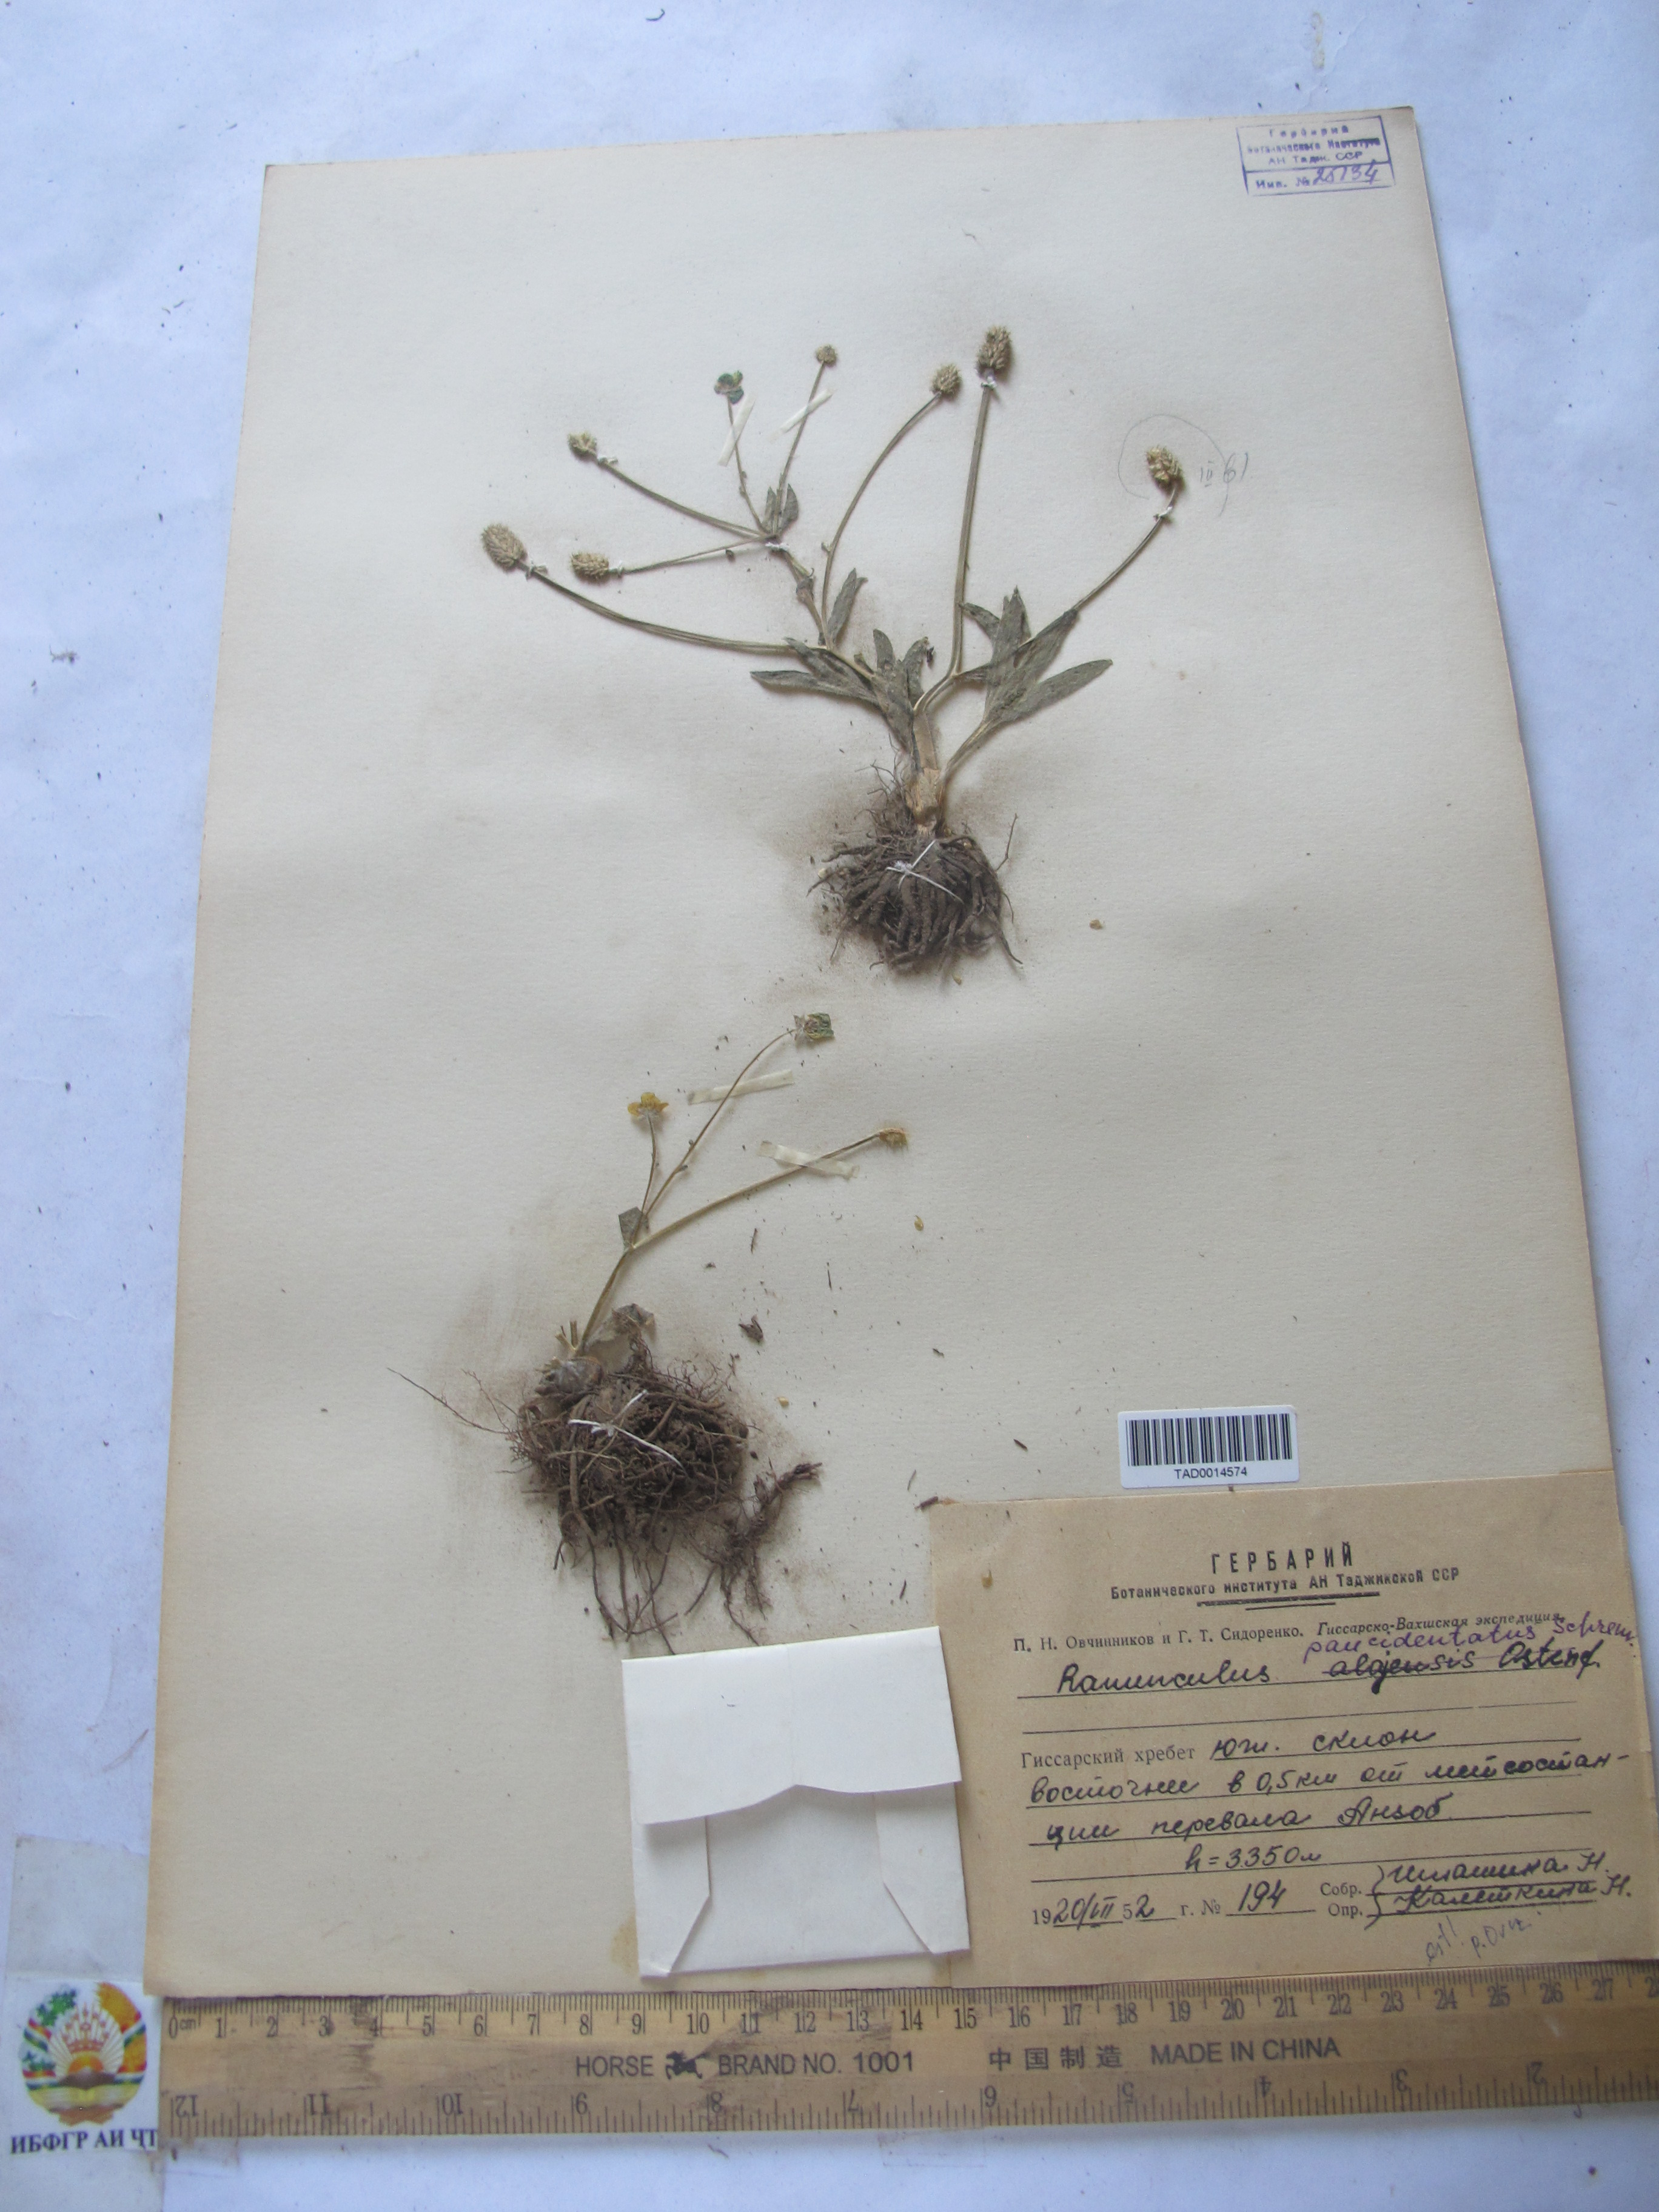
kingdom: Plantae
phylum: Tracheophyta
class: Magnoliopsida
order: Ranunculales
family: Ranunculaceae
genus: Ranunculus
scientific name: Ranunculus paucidentatus
